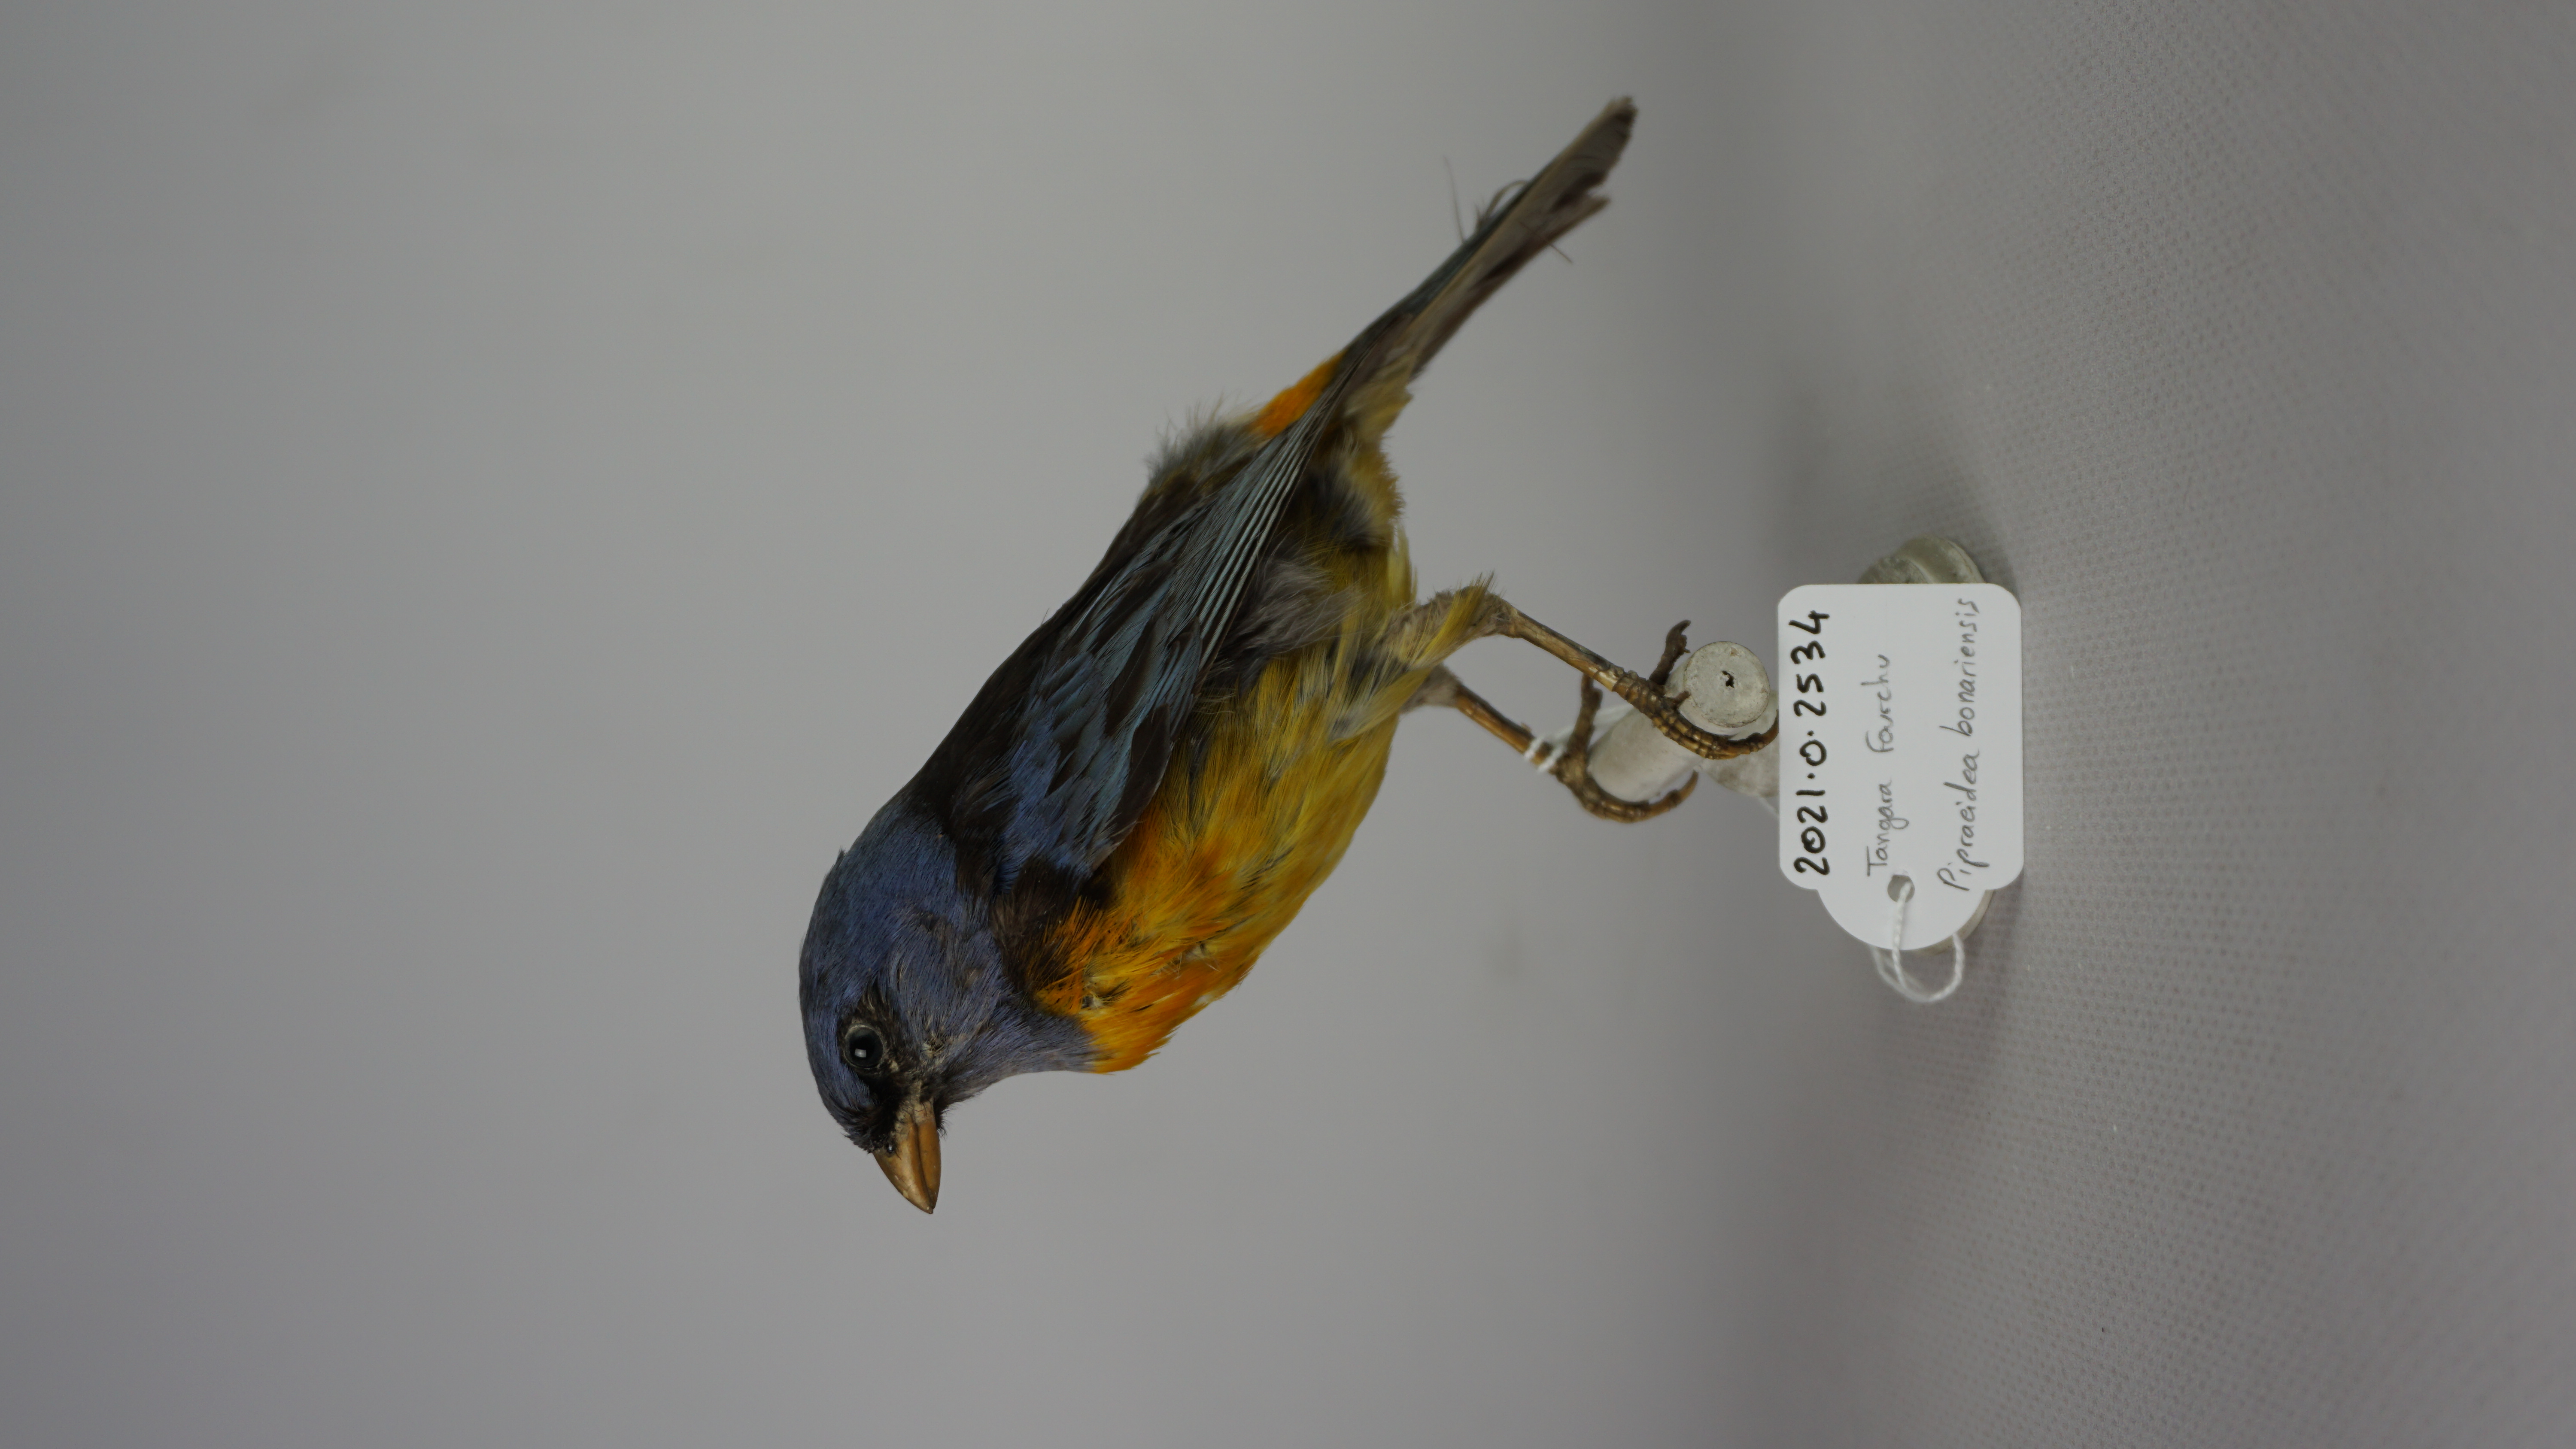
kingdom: Animalia
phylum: Chordata
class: Aves
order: Passeriformes
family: Thraupidae
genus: Diglossa
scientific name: Diglossa humeralis
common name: Black flowerpiercer
